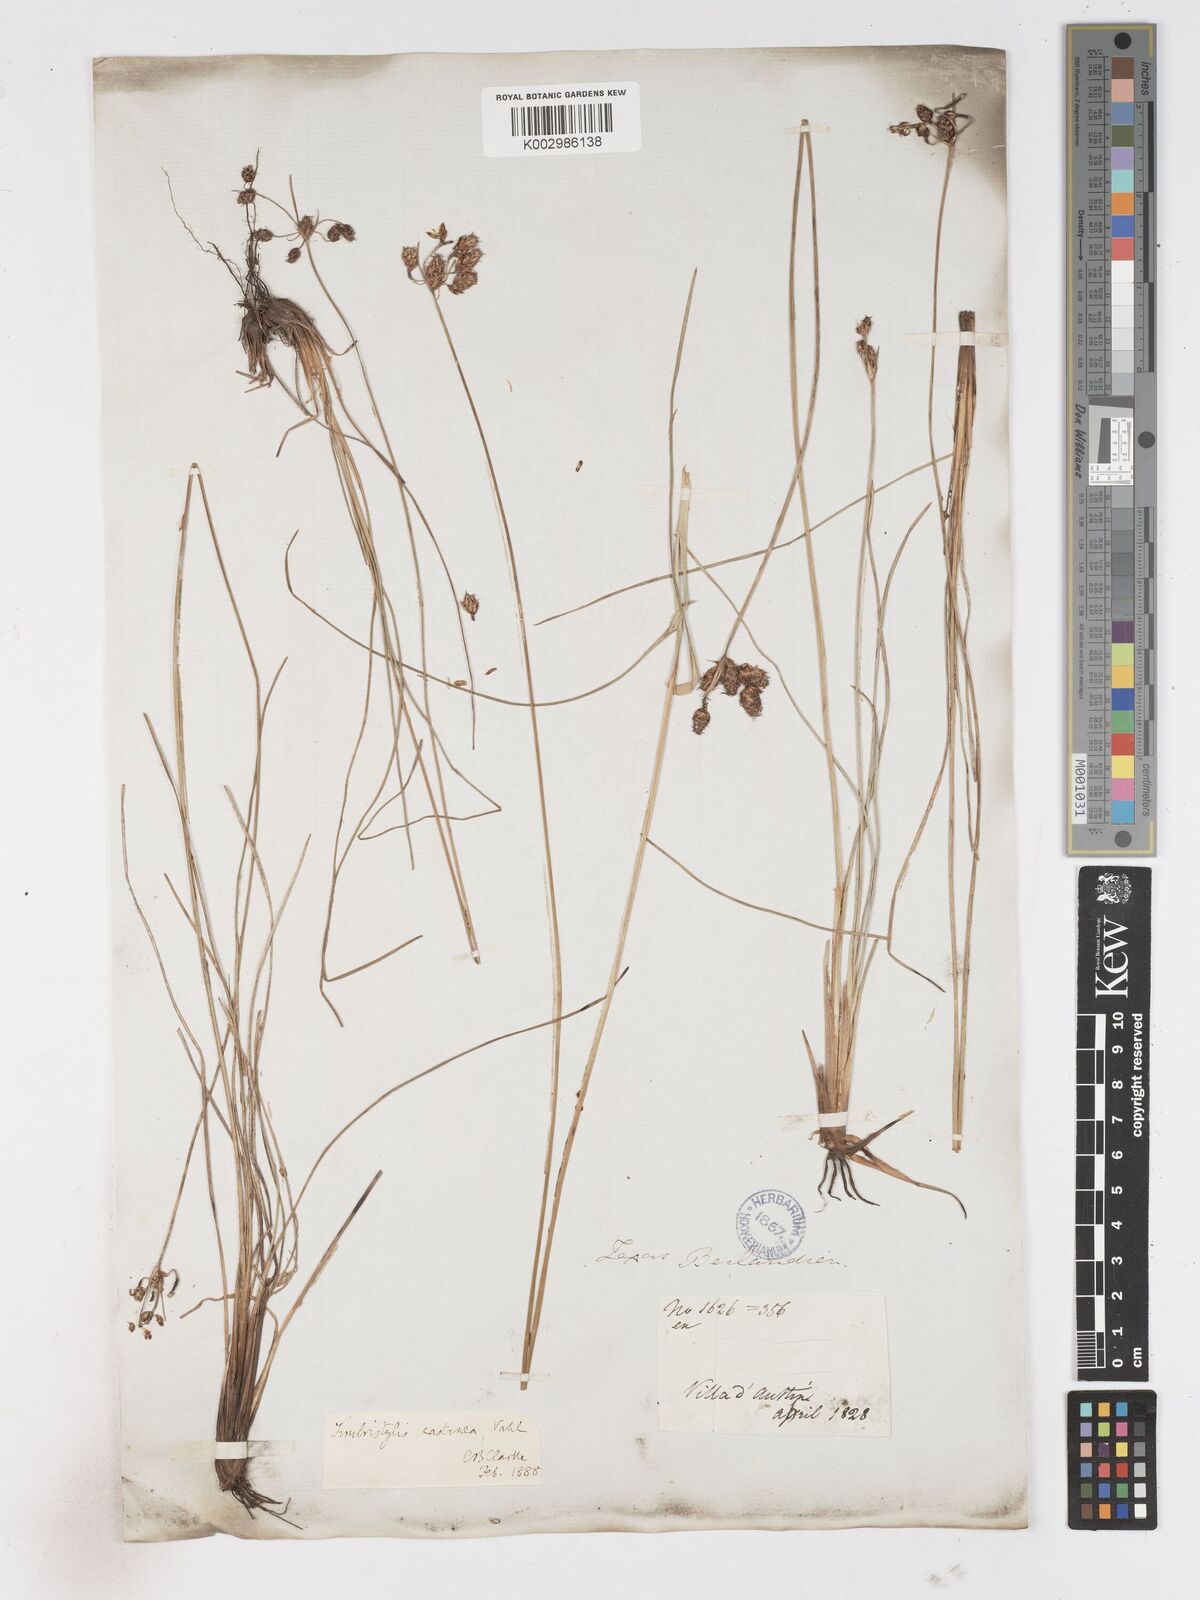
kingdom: Plantae
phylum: Tracheophyta
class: Liliopsida
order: Poales
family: Cyperaceae
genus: Fimbristylis
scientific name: Fimbristylis spadicea
